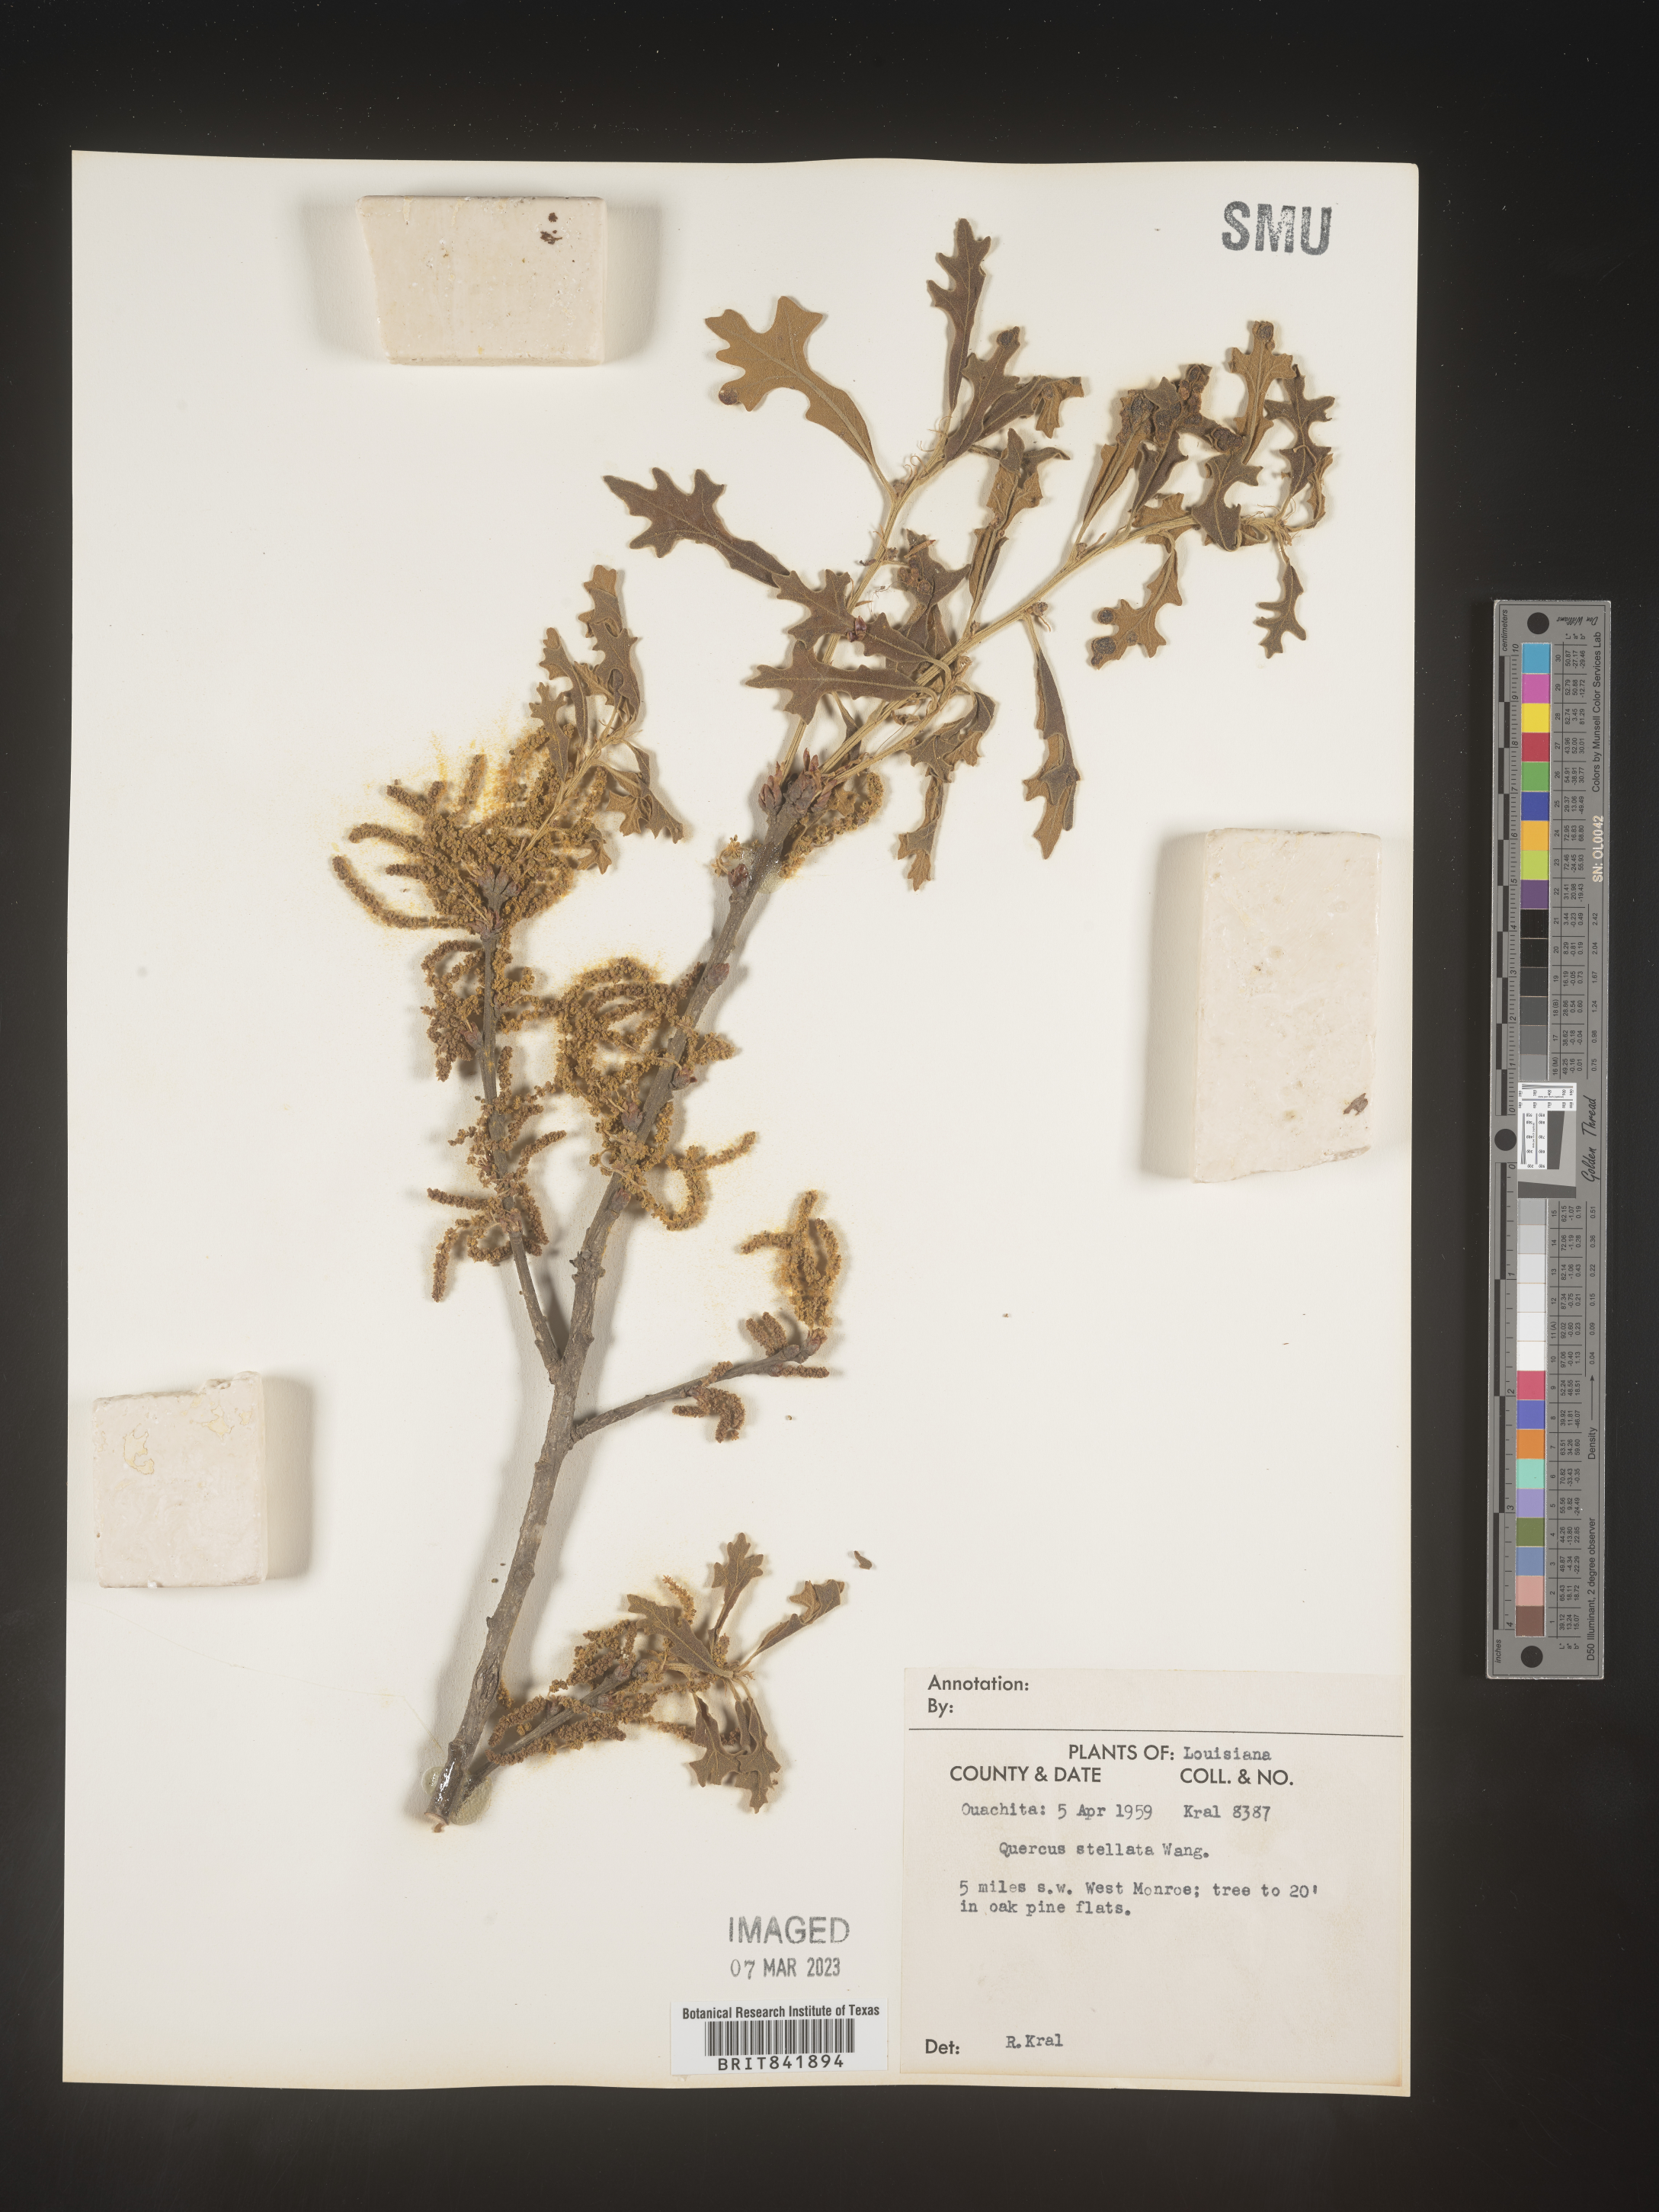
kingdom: Plantae
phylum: Tracheophyta
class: Magnoliopsida
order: Fagales
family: Fagaceae
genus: Quercus
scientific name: Quercus stellata
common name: Post oak
